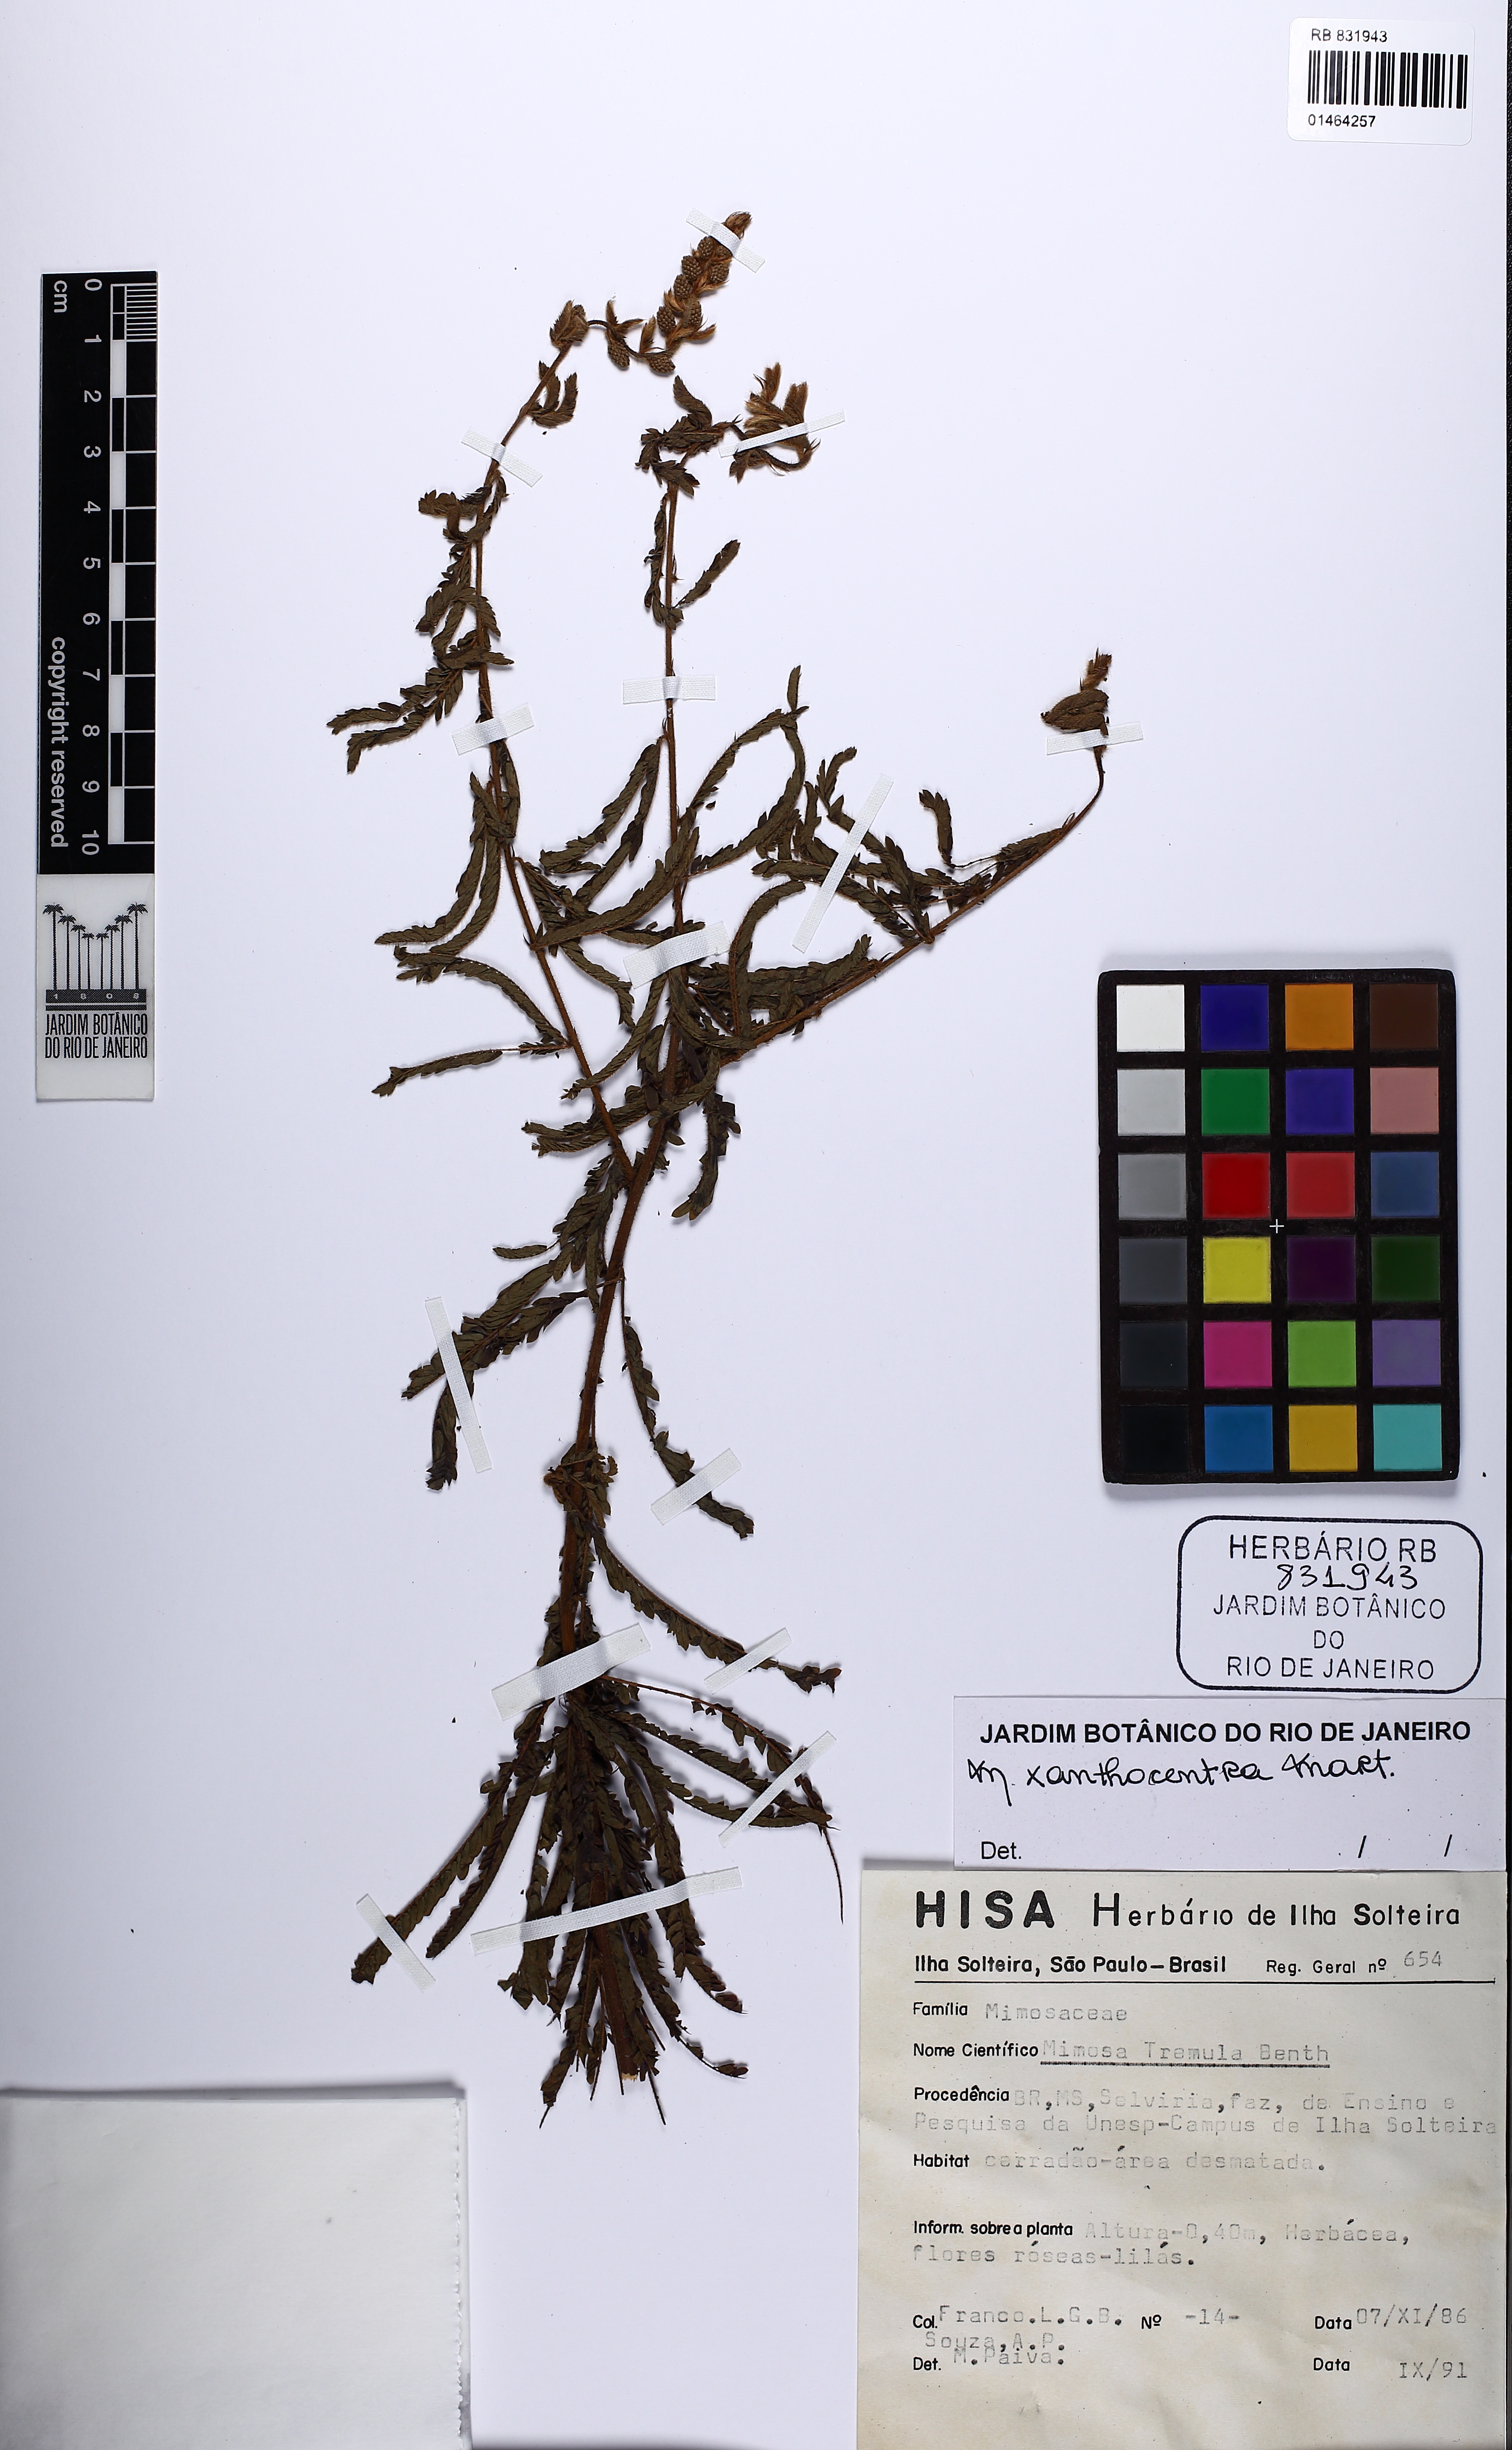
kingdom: Plantae
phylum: Tracheophyta
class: Magnoliopsida
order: Fabales
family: Fabaceae
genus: Mimosa
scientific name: Mimosa xanthocentra
